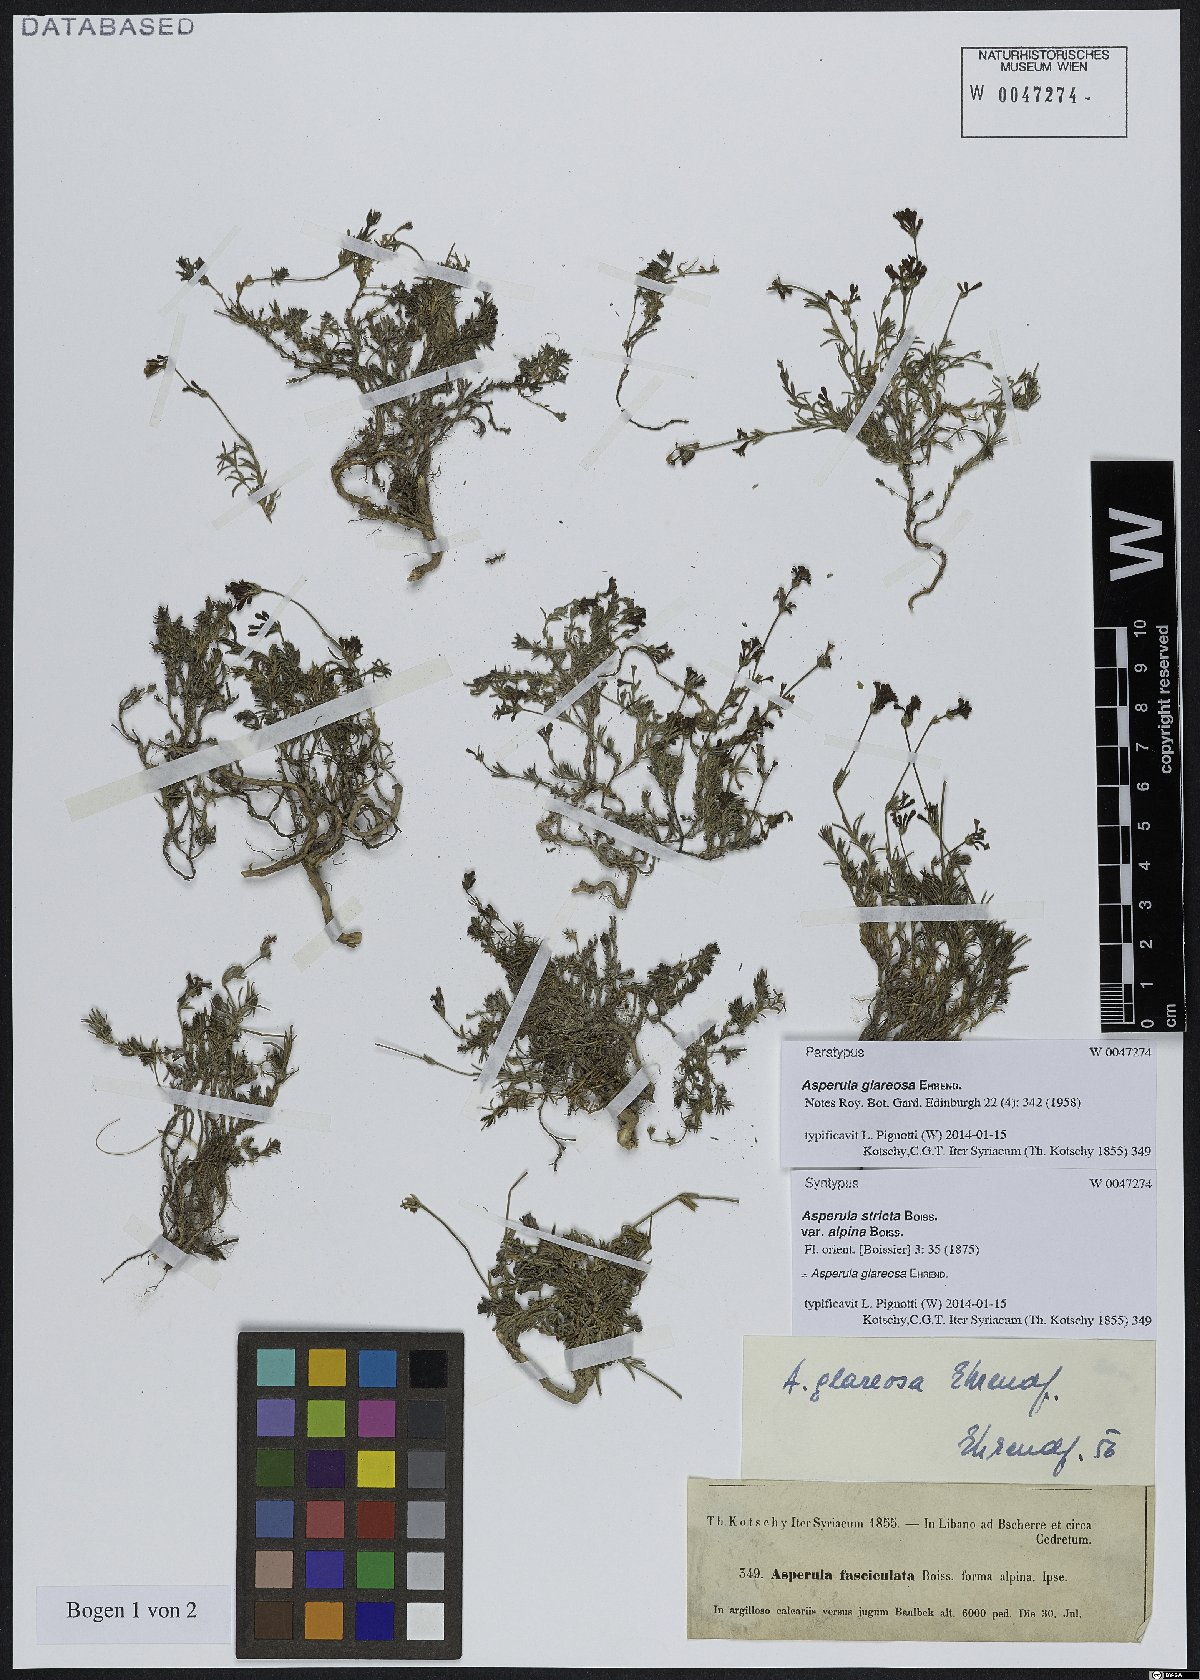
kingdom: Plantae
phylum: Tracheophyta
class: Magnoliopsida
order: Gentianales
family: Rubiaceae
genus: Cynanchica
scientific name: Cynanchica glareosa
